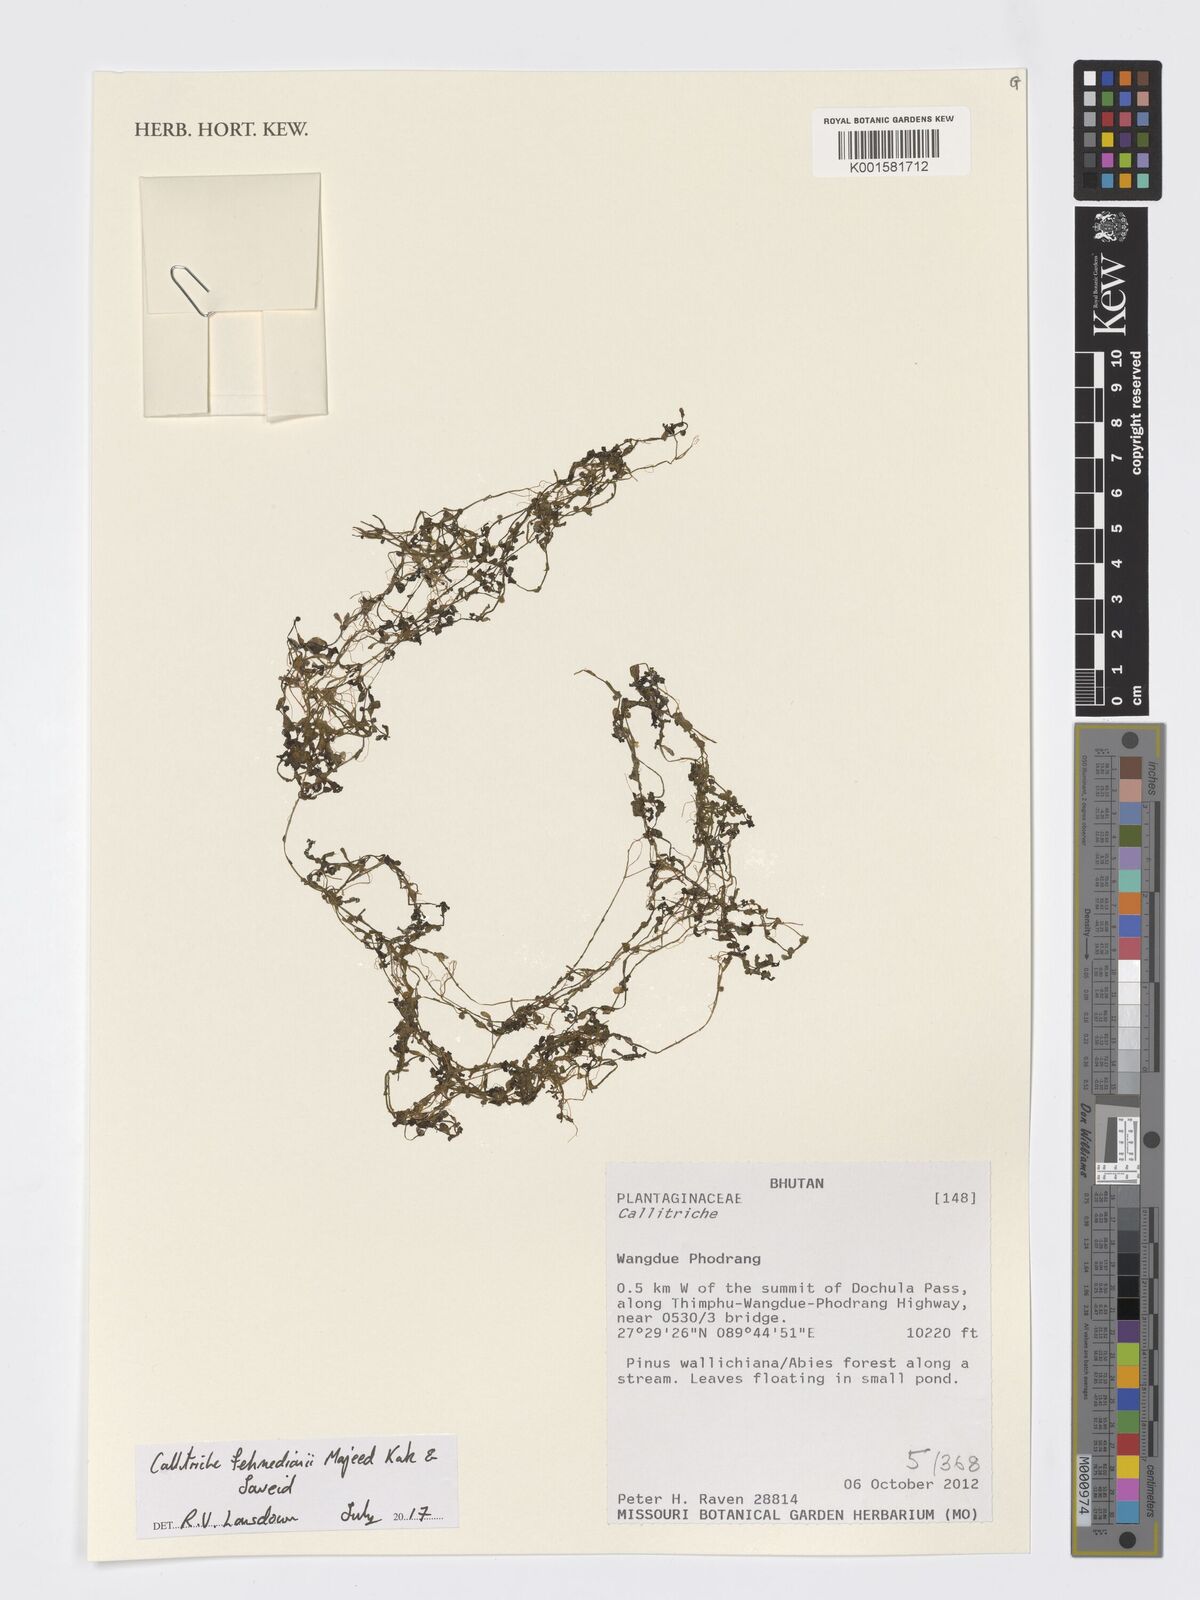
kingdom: Plantae
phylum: Tracheophyta
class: Magnoliopsida
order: Lamiales
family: Plantaginaceae
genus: Callitriche
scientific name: Callitriche fehmedianii
